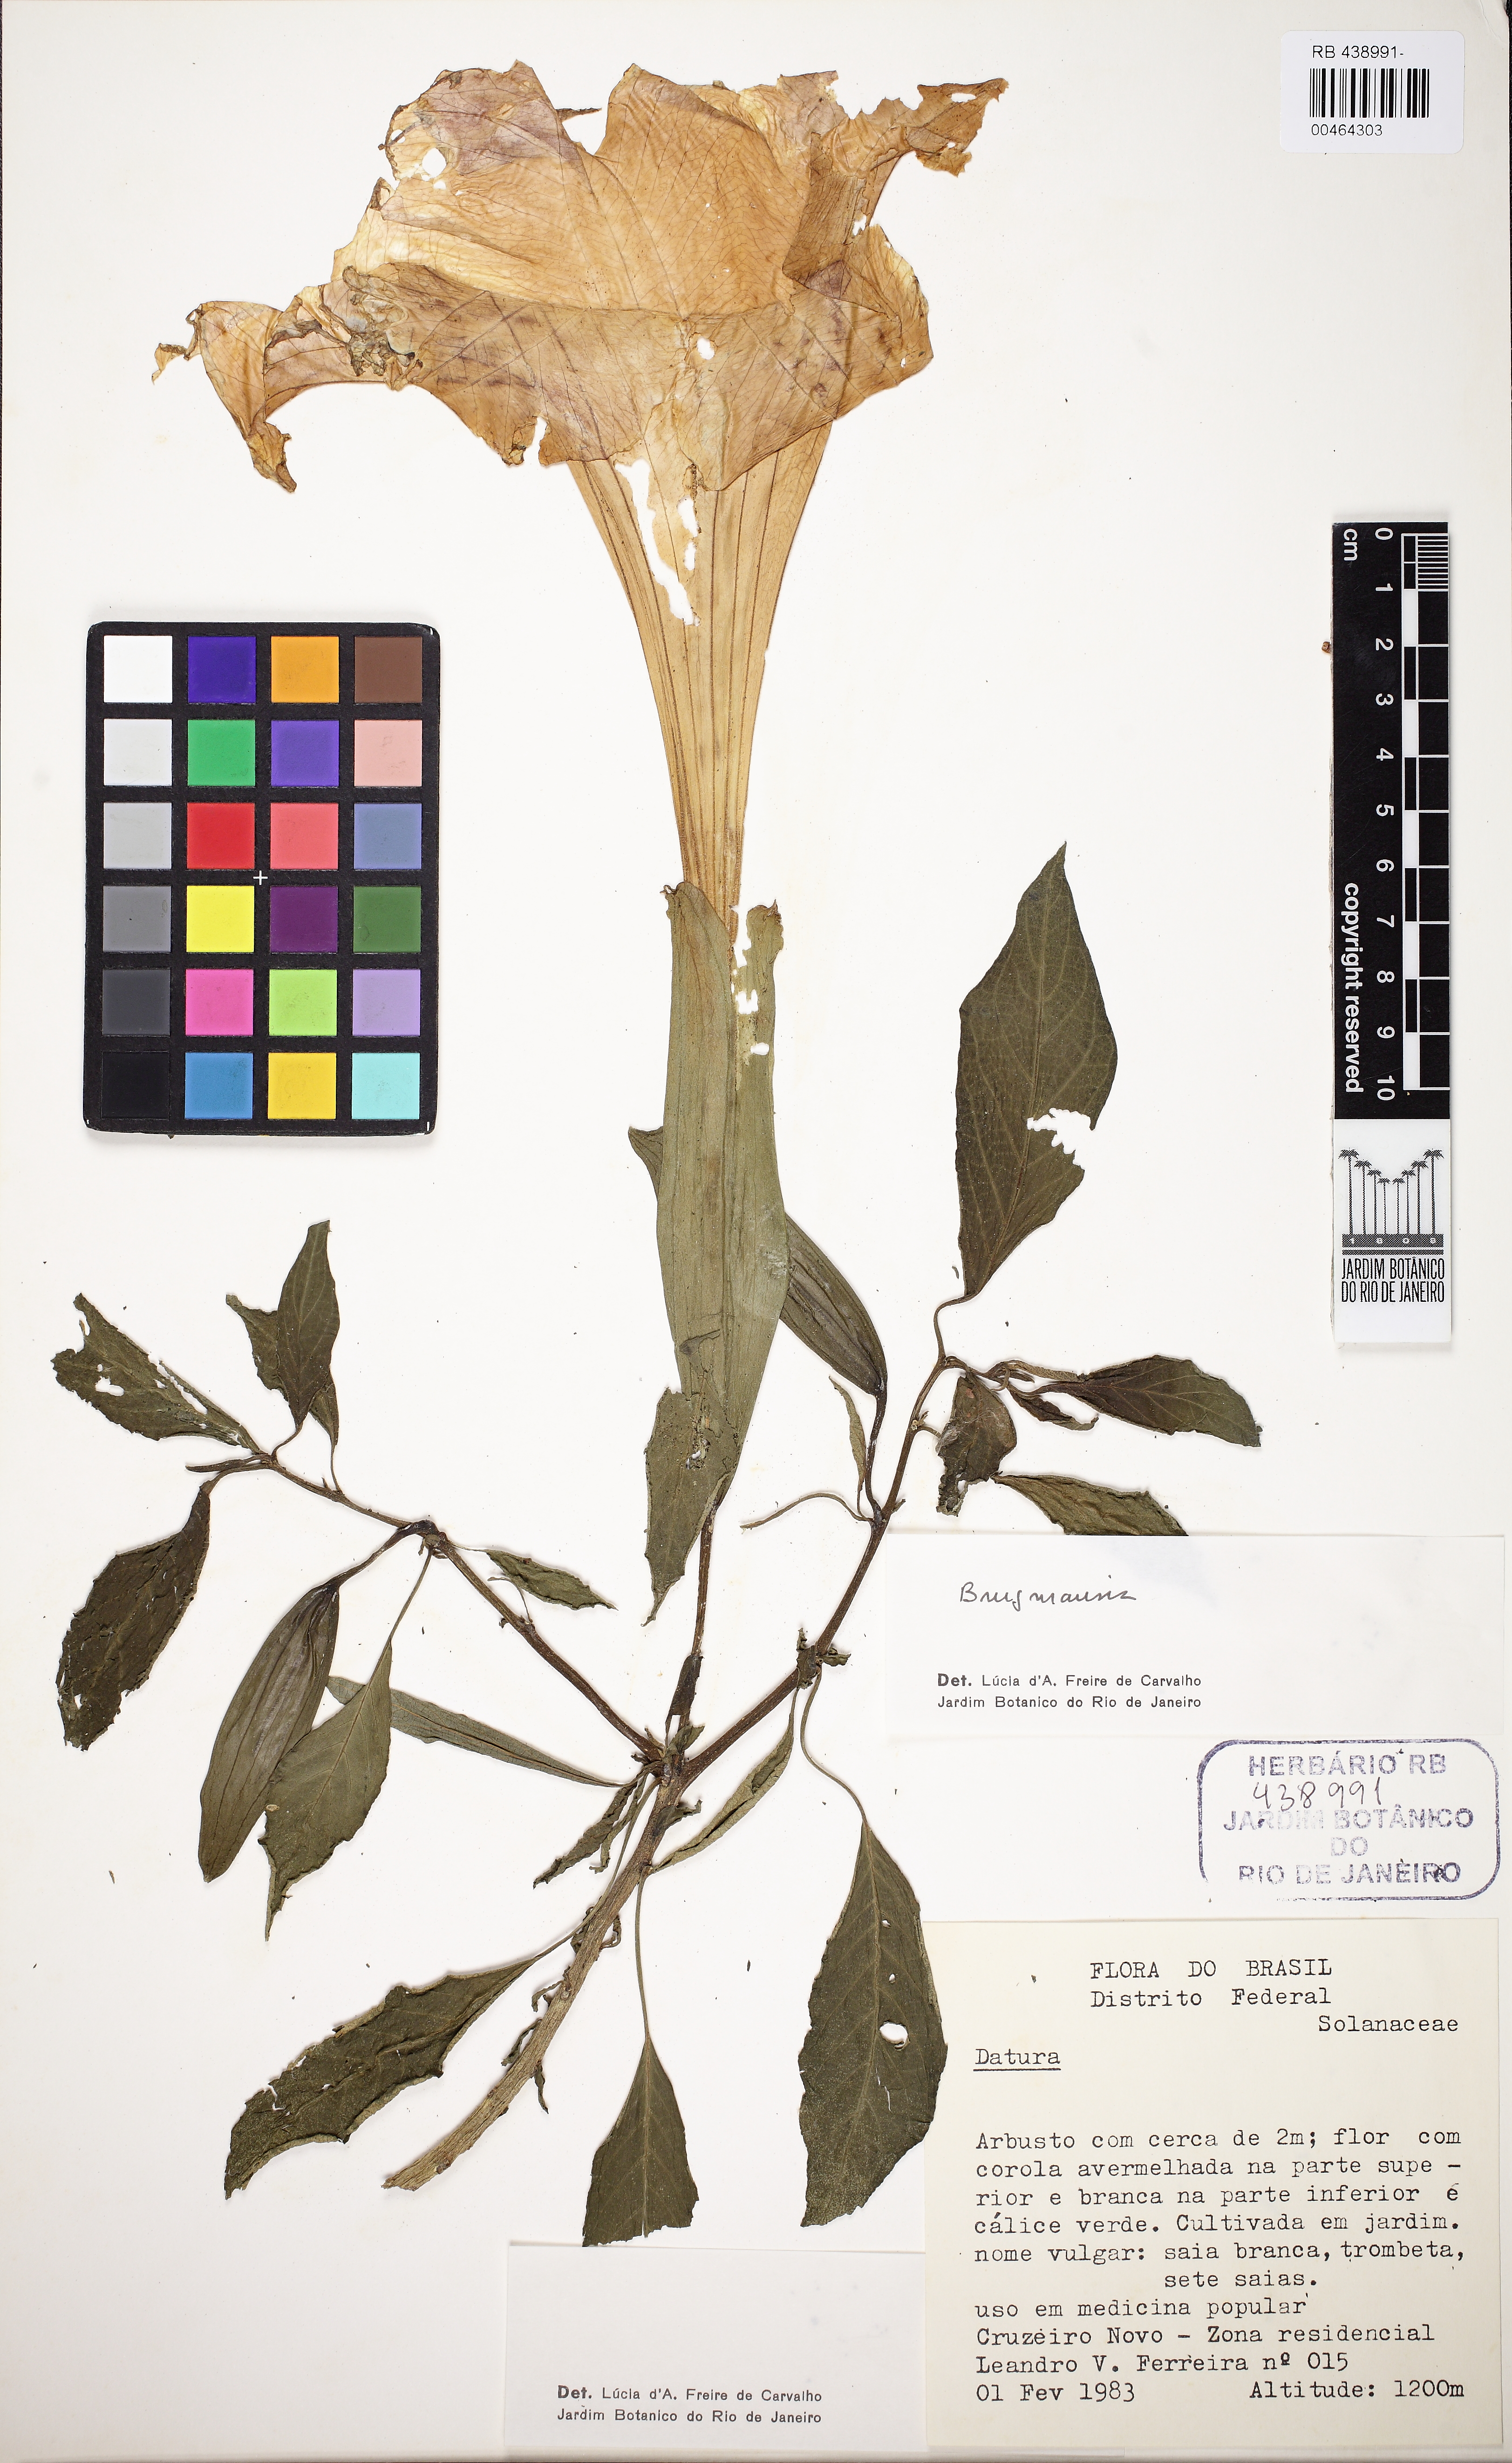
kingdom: Plantae
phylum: Tracheophyta
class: Magnoliopsida
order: Solanales
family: Solanaceae
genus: Brugmansia
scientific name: Brugmansia
